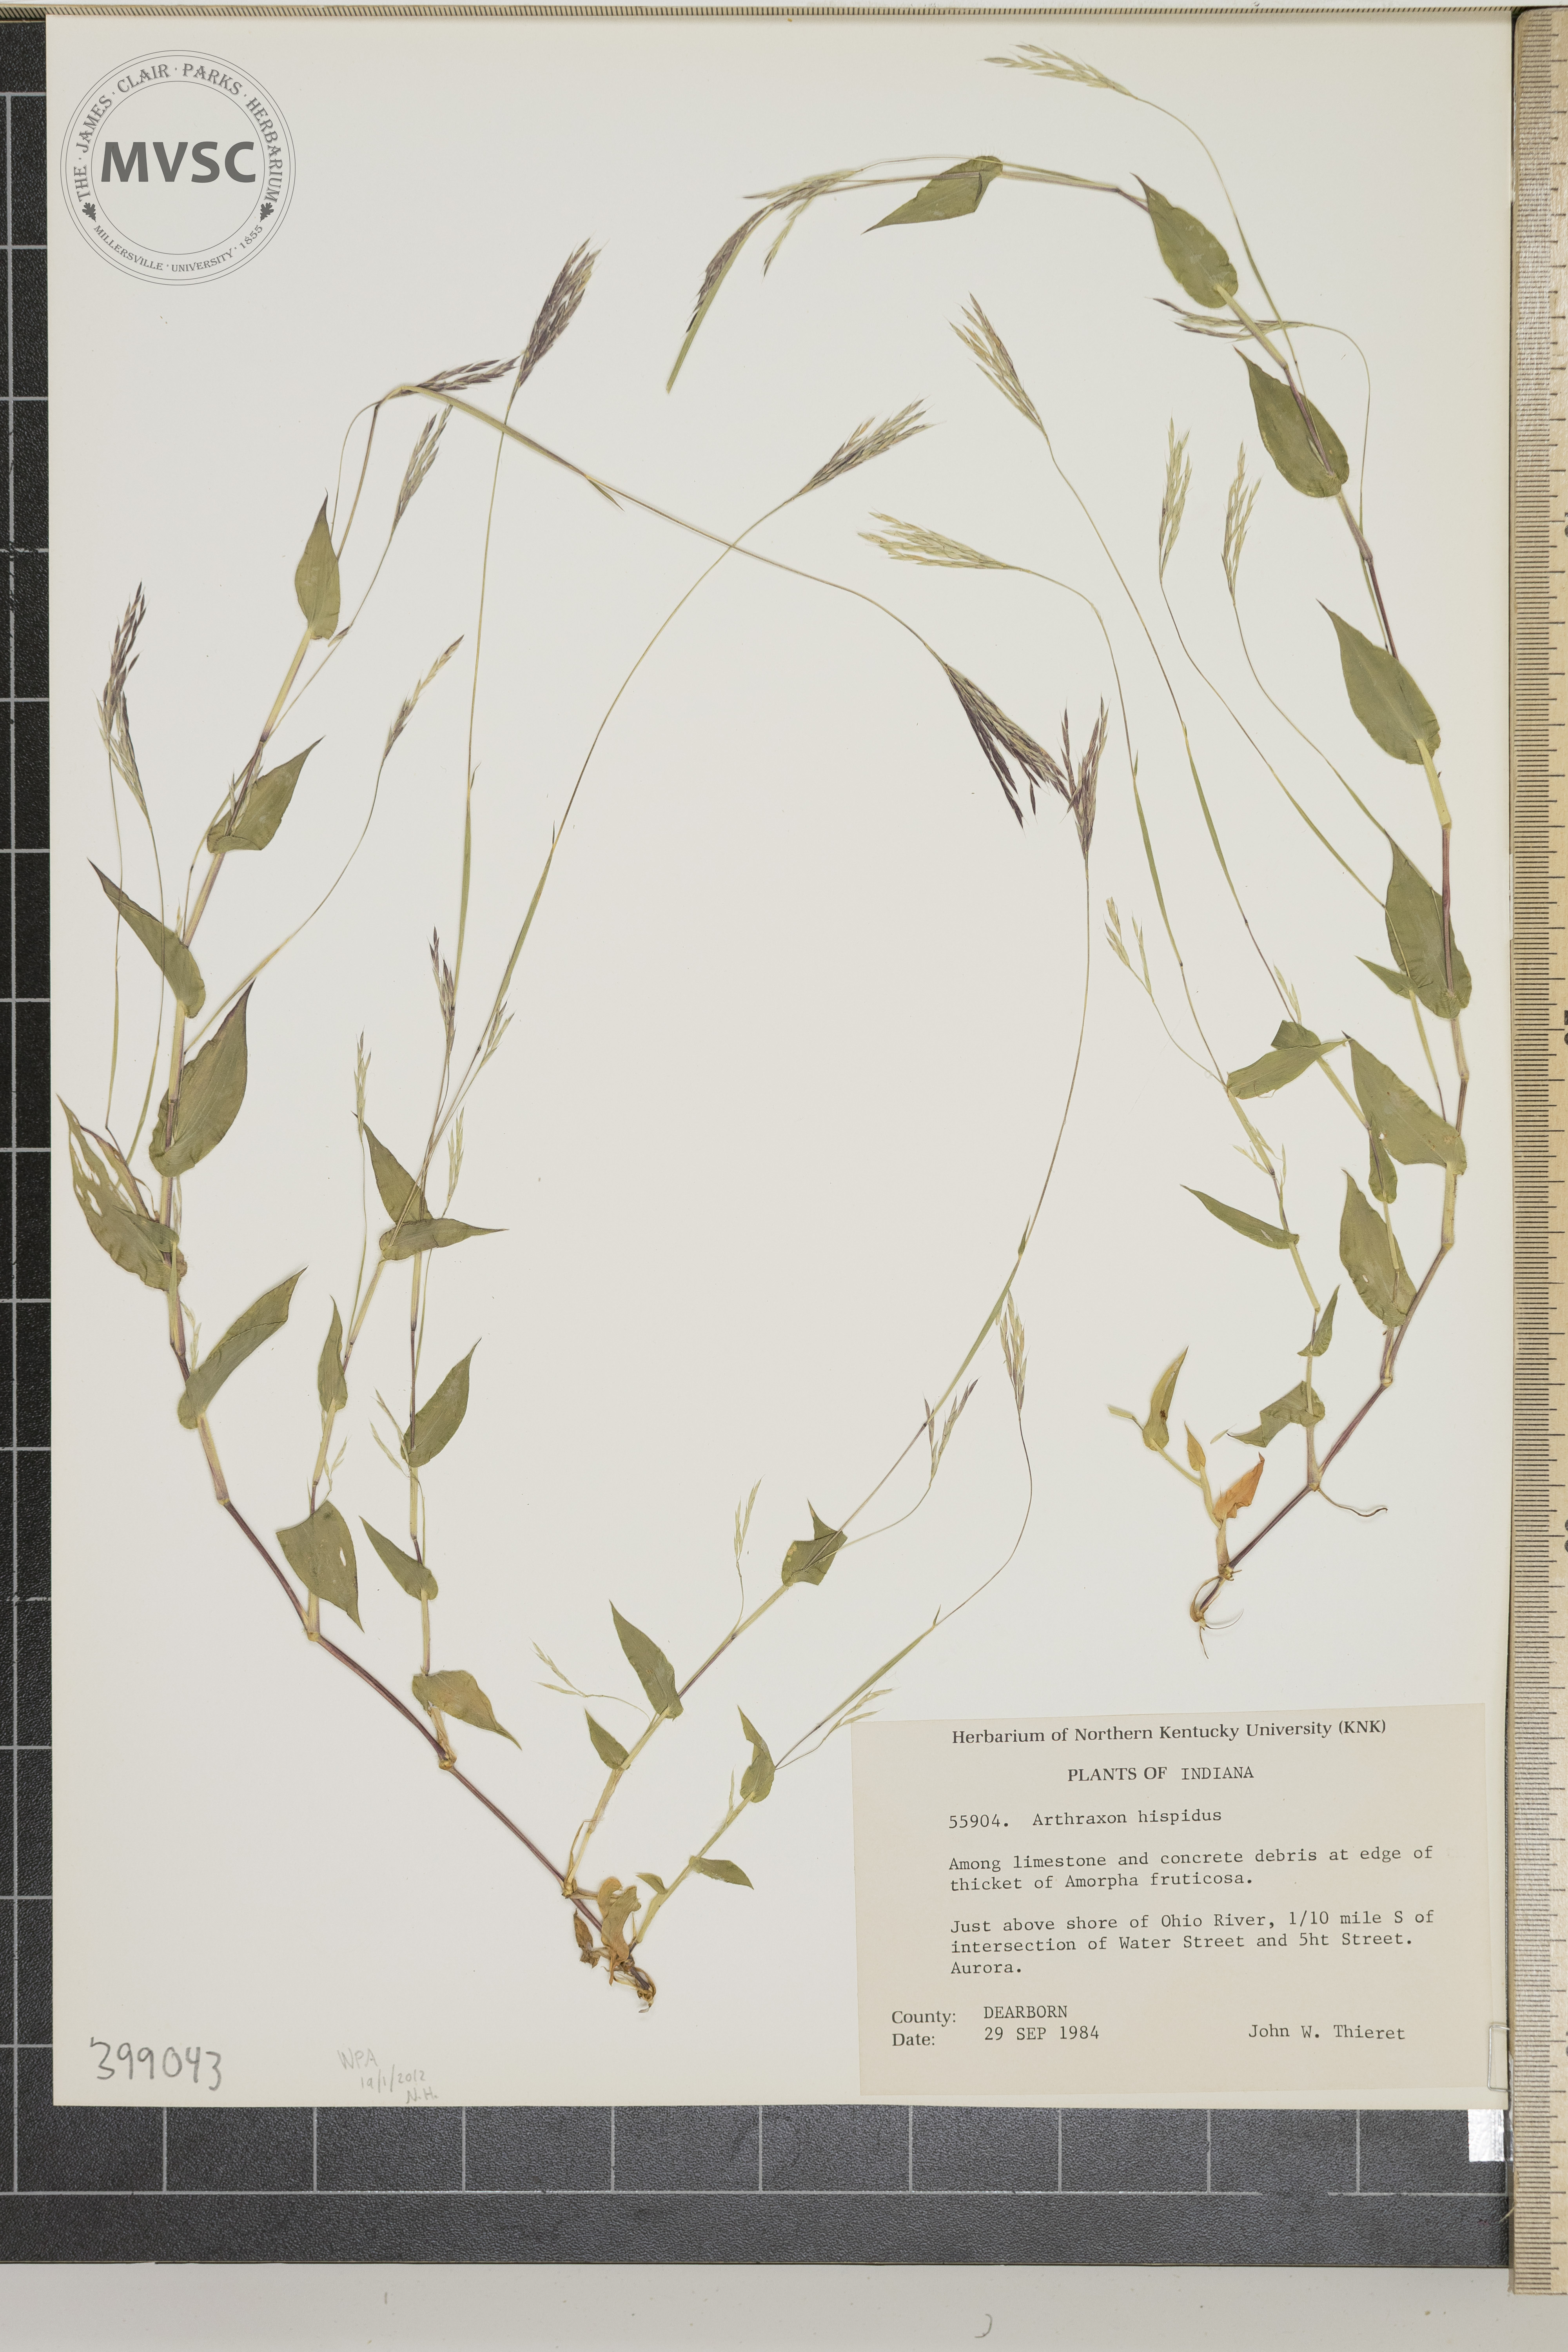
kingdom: Plantae
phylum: Tracheophyta
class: Liliopsida
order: Poales
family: Poaceae
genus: Arthraxon
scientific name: Arthraxon hispidus
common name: small carpgrass
